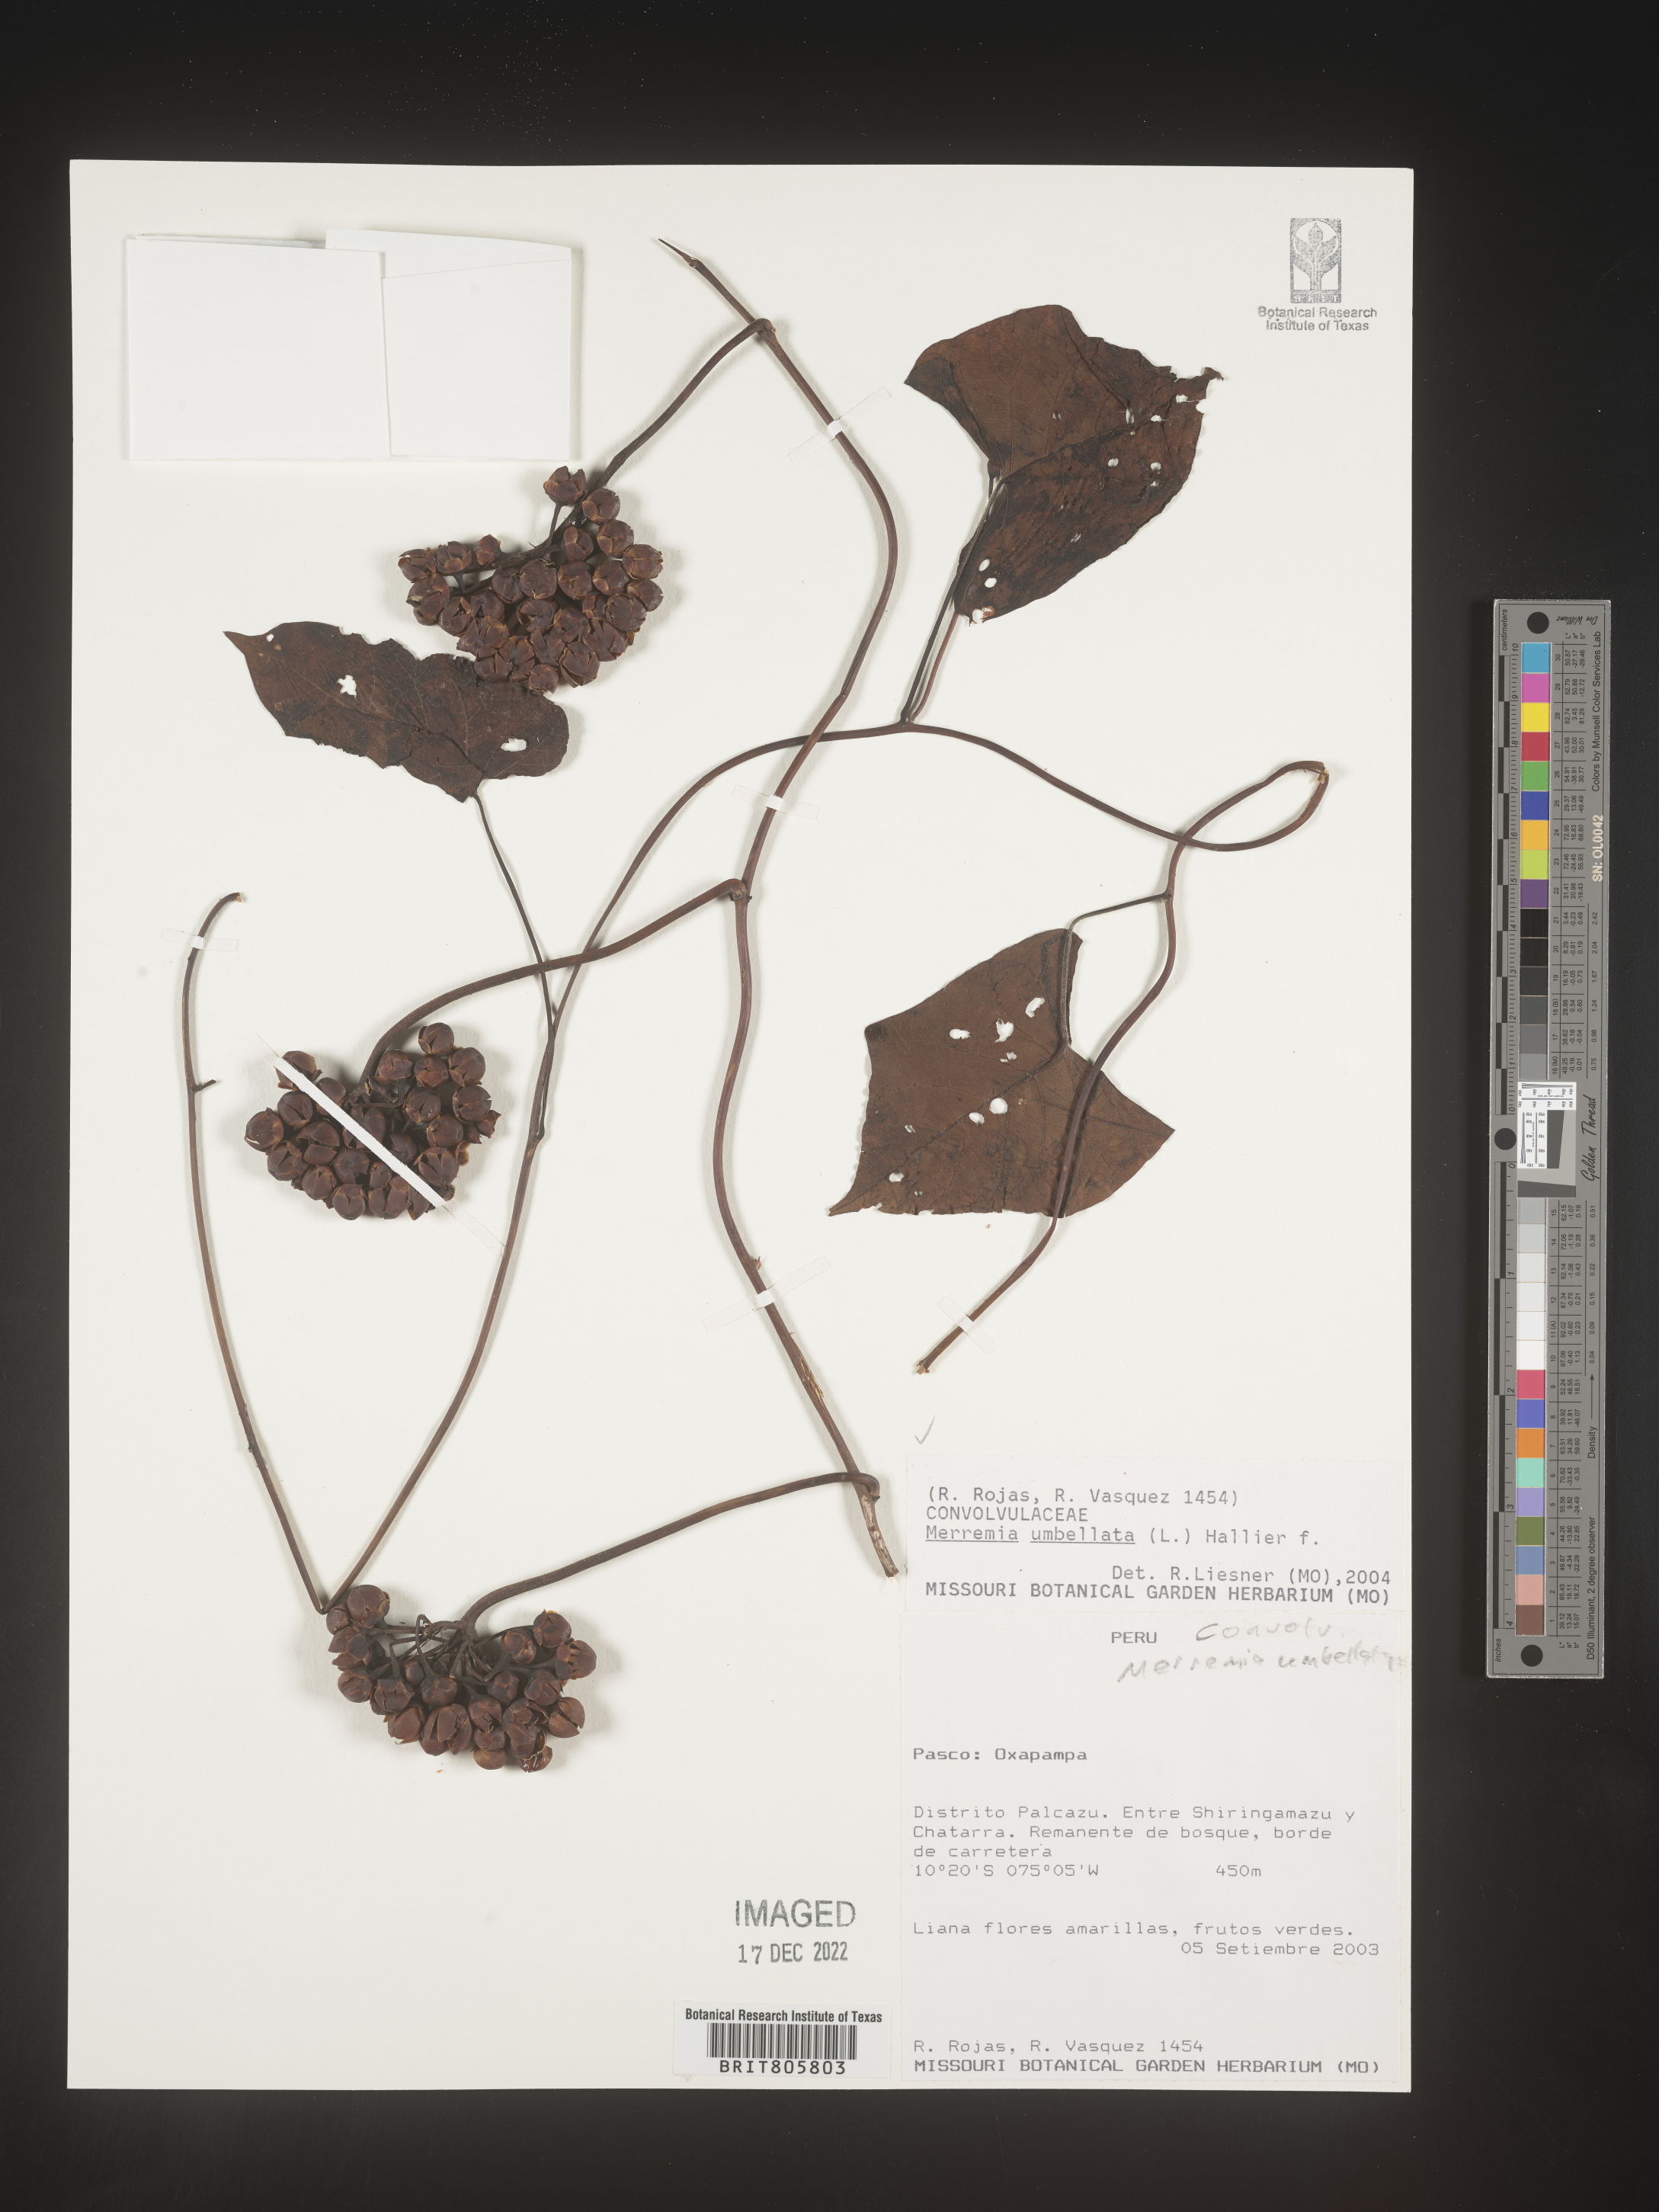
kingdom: Plantae
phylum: Tracheophyta
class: Magnoliopsida
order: Solanales
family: Convolvulaceae
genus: Merremia
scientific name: Merremia
